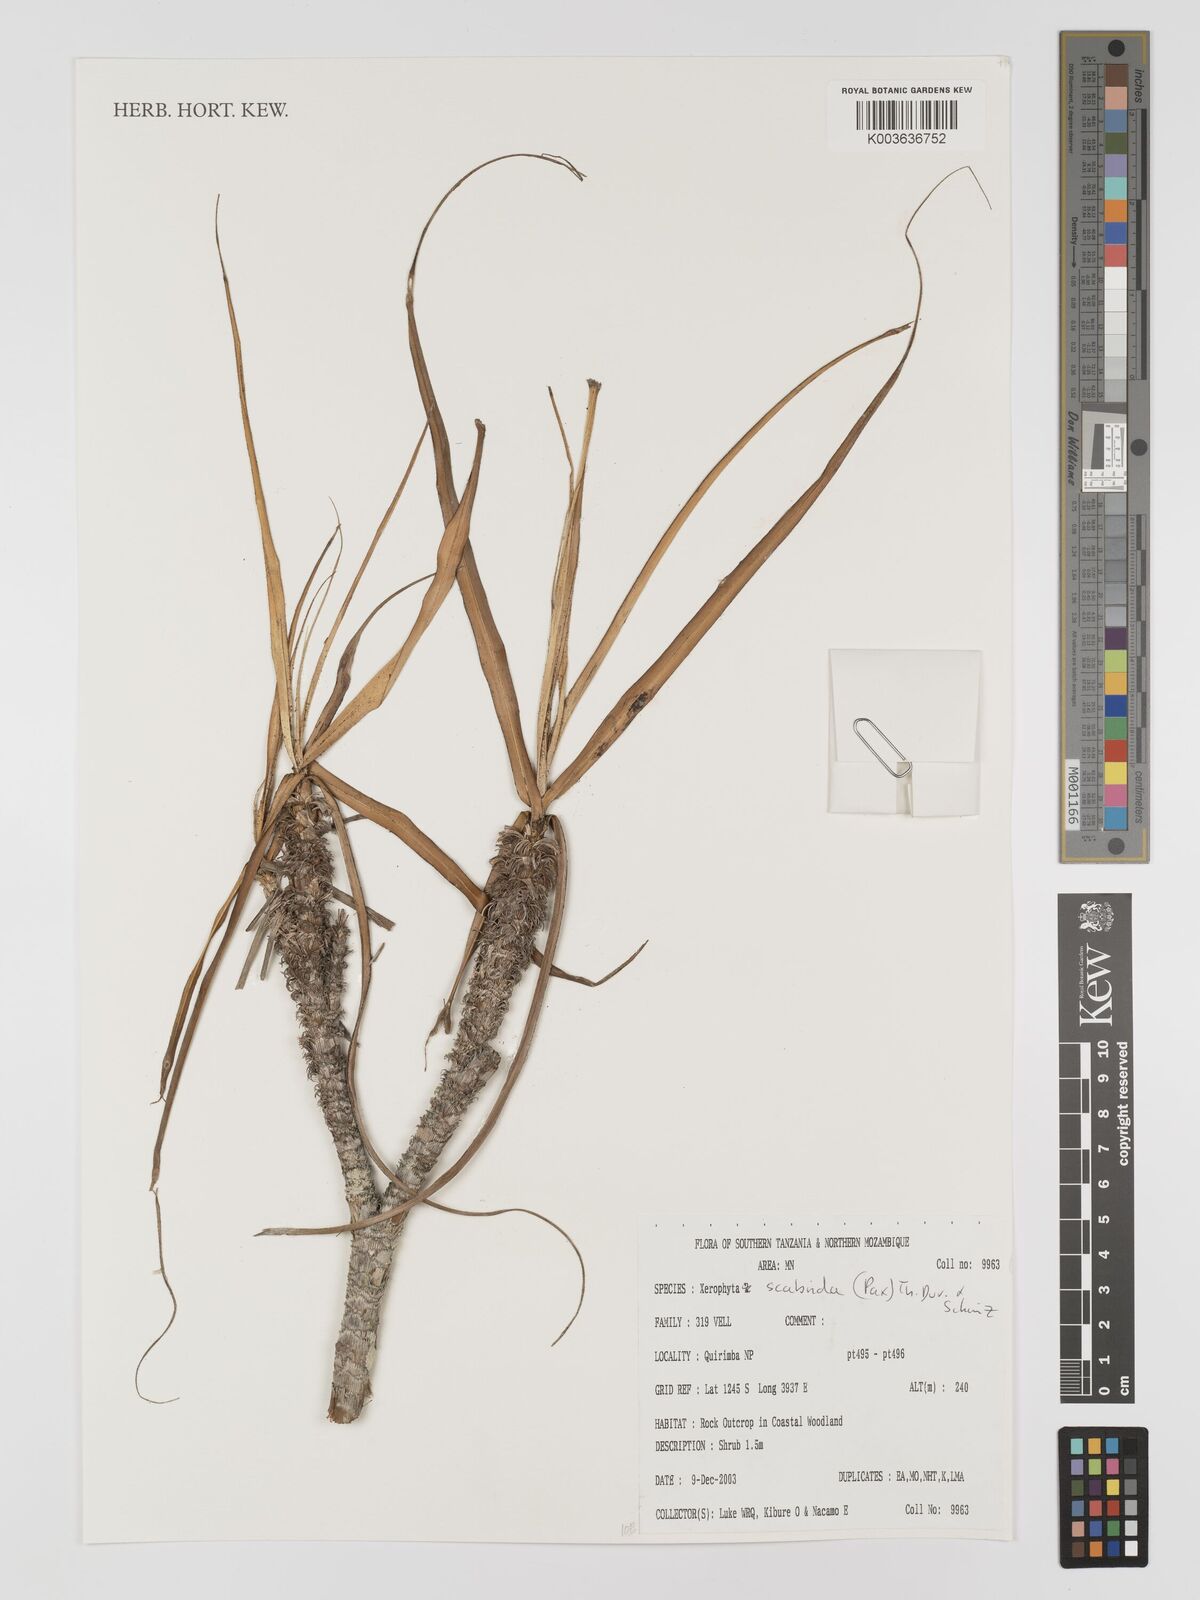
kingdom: Plantae
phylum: Tracheophyta
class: Liliopsida
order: Pandanales
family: Velloziaceae
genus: Xerophyta
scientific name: Xerophyta scabrida
